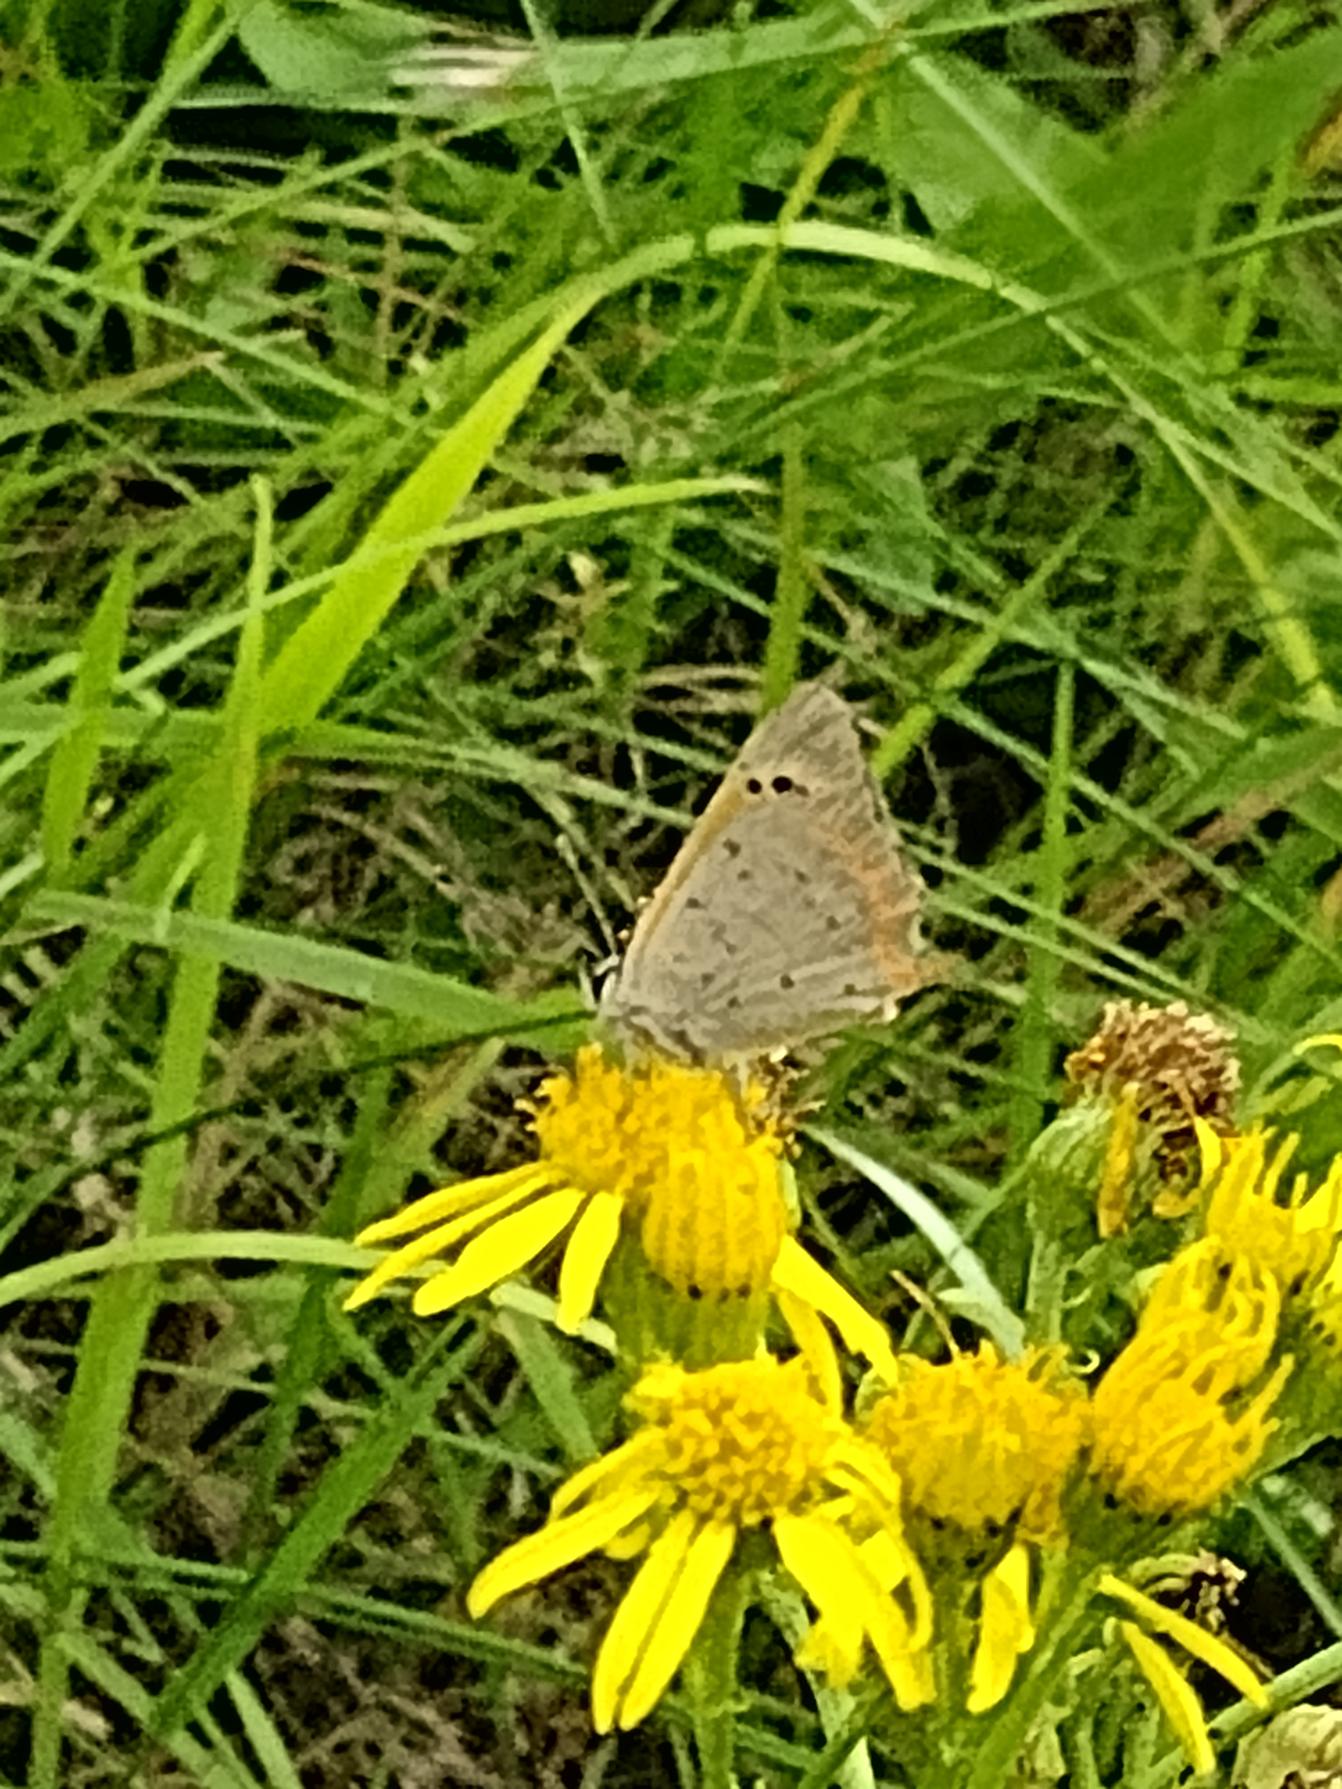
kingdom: Animalia
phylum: Arthropoda
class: Insecta
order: Lepidoptera
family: Lycaenidae
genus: Lycaena
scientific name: Lycaena phlaeas
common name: Lille ildfugl
